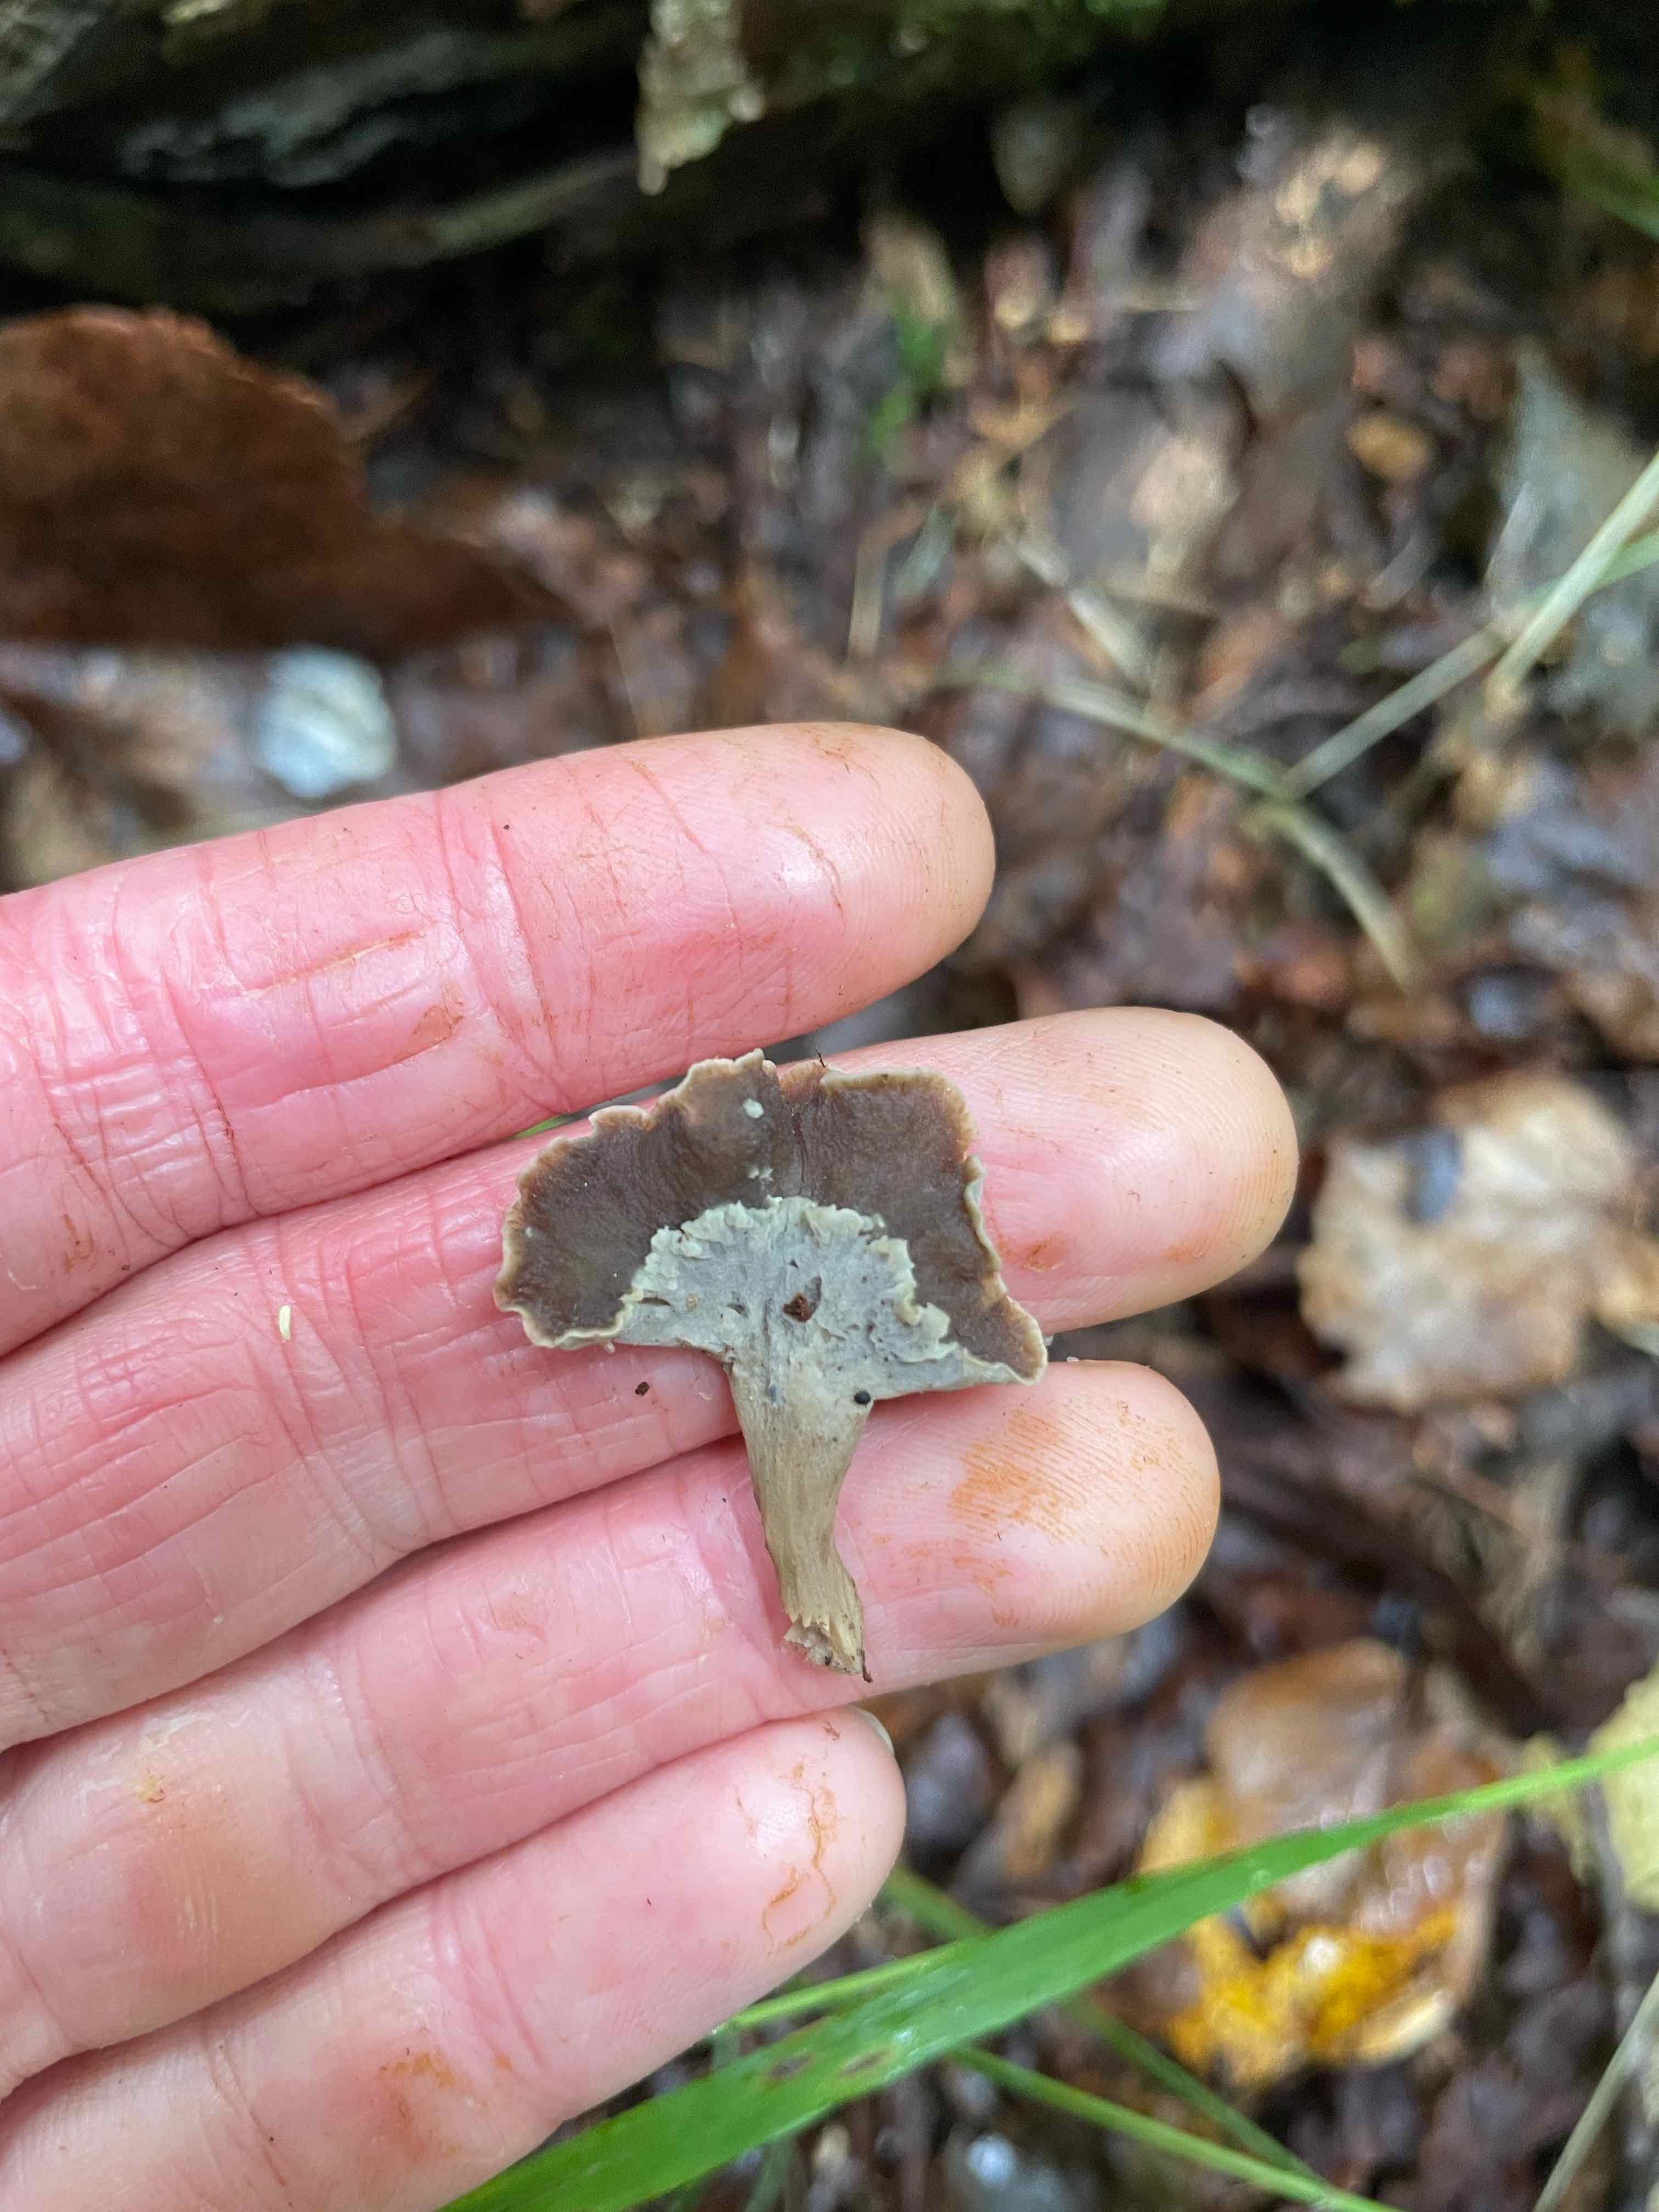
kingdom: Fungi
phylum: Basidiomycota
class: Agaricomycetes
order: Cantharellales
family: Hydnaceae
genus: Craterellus
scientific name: Craterellus undulatus
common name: liden kantarel
